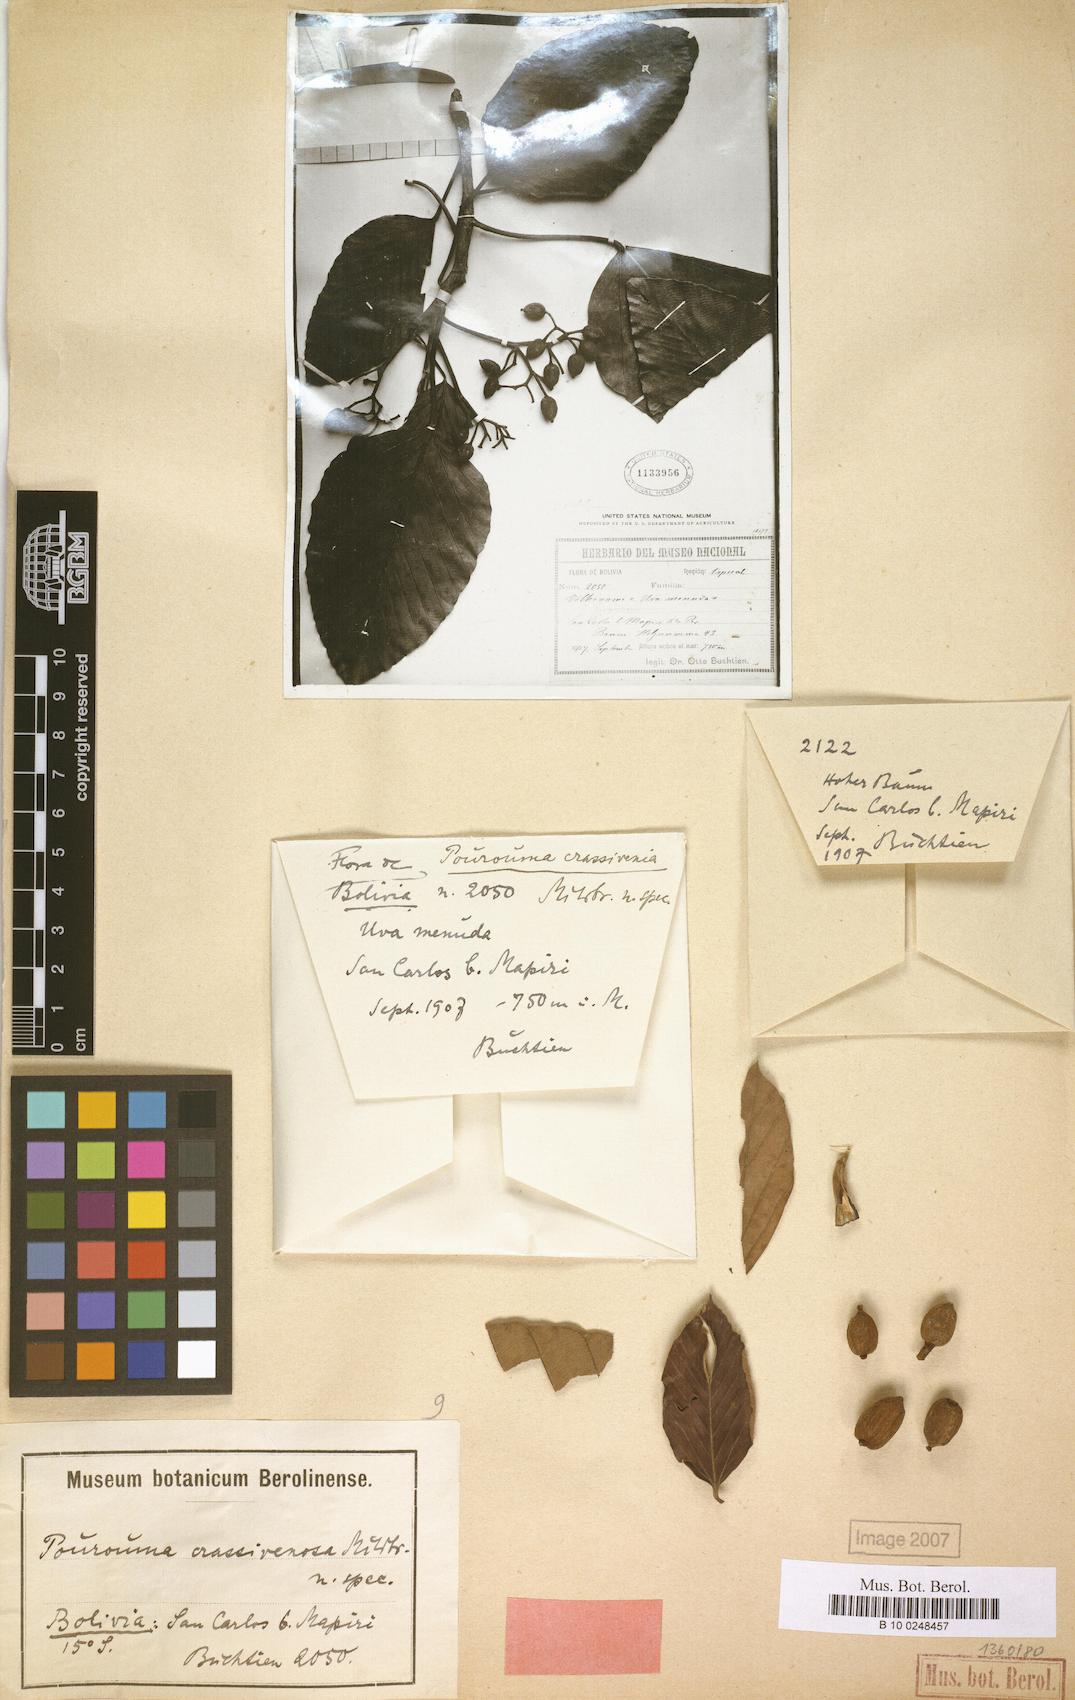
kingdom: Plantae
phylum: Tracheophyta
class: Magnoliopsida
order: Rosales
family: Urticaceae
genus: Pourouma
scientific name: Pourouma bicolor
